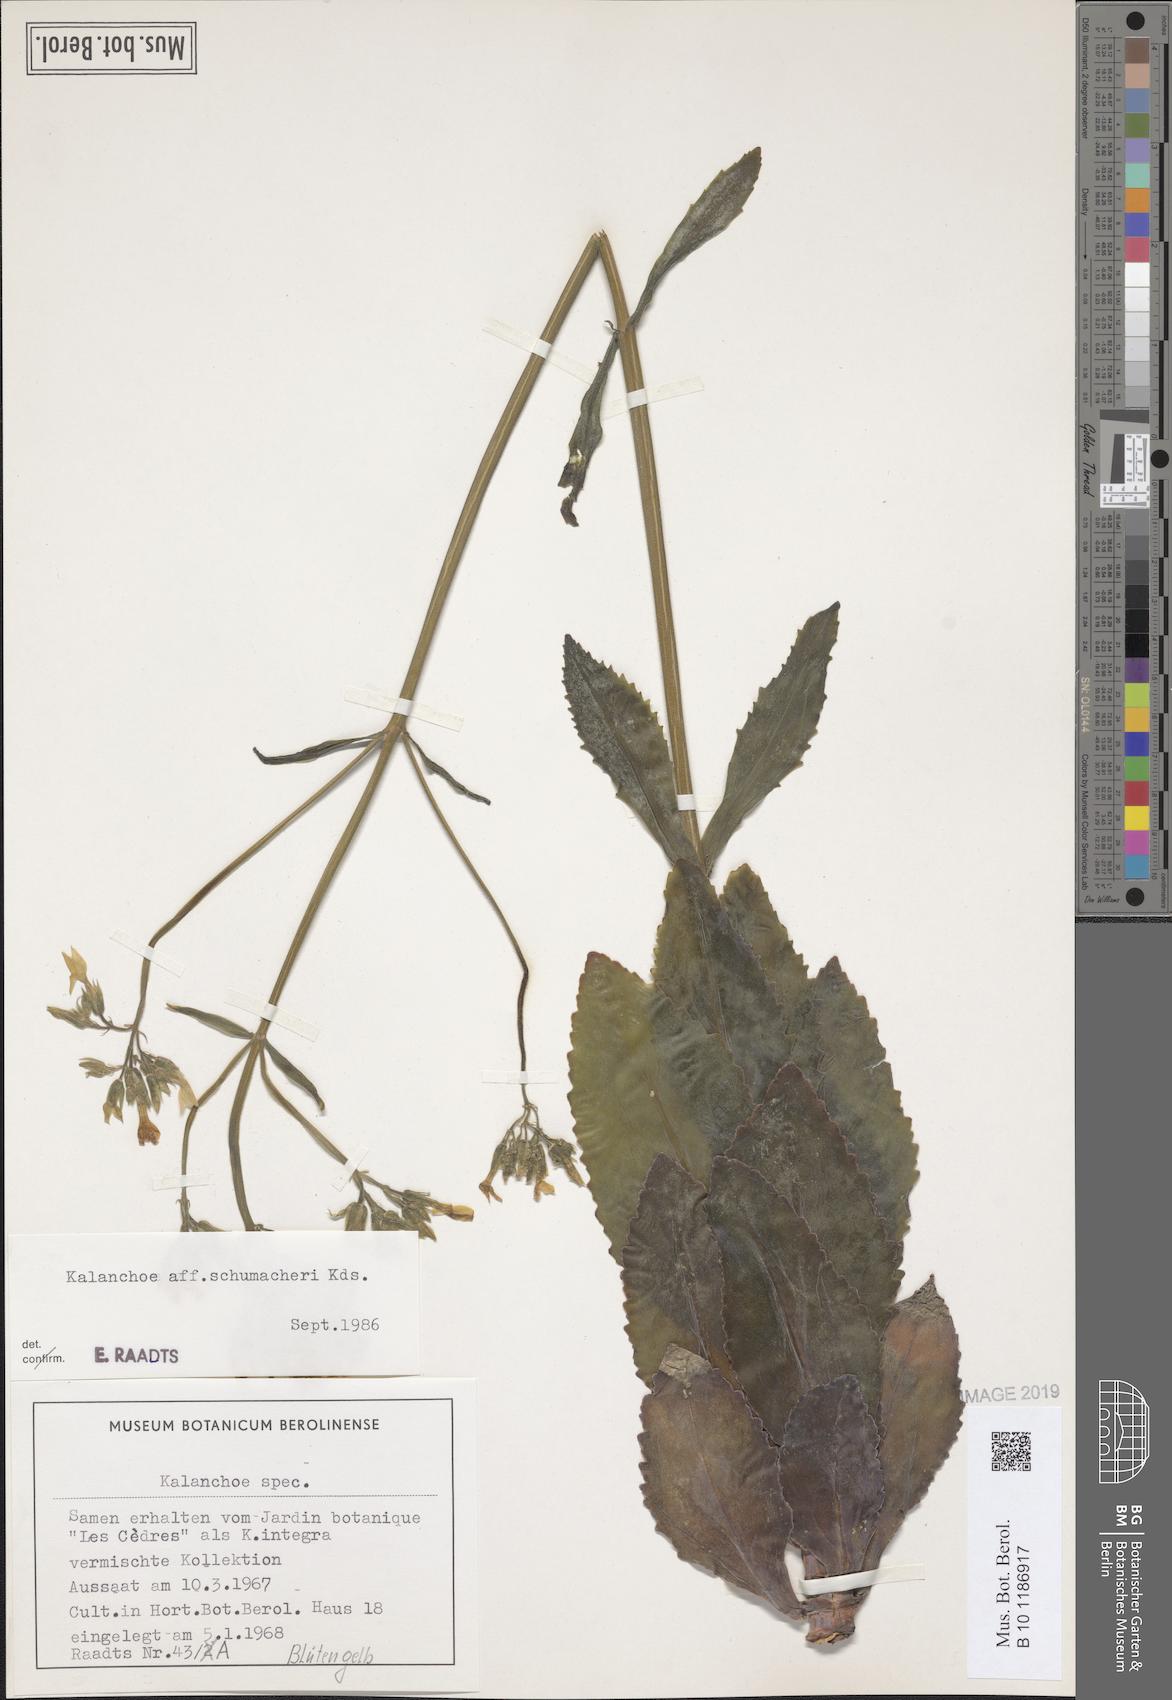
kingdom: Plantae
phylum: Tracheophyta
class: Magnoliopsida
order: Saxifragales
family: Crassulaceae
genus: Kalanchoe
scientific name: Kalanchoe integra
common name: Neverdie
